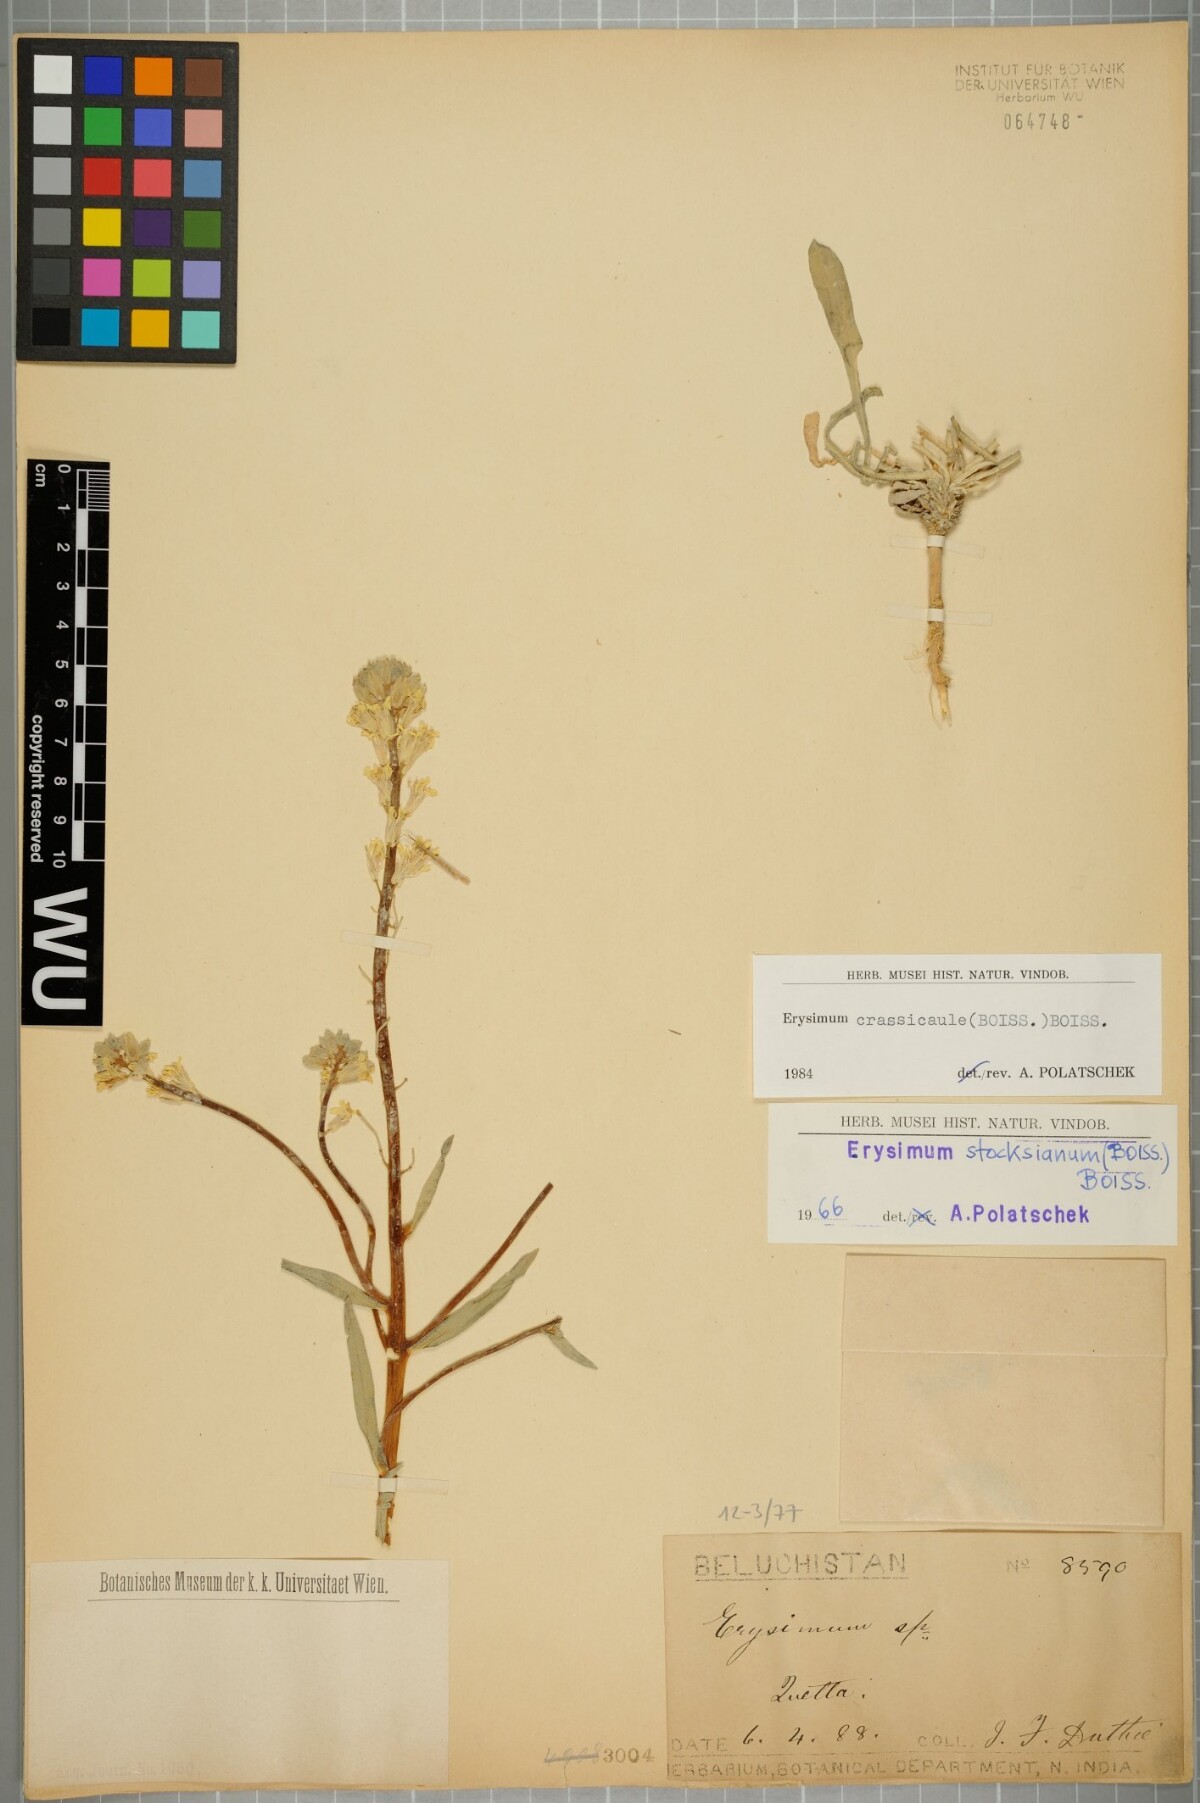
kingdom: Plantae
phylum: Tracheophyta
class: Magnoliopsida
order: Brassicales
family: Brassicaceae
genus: Erysimum
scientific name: Erysimum crassicaule
